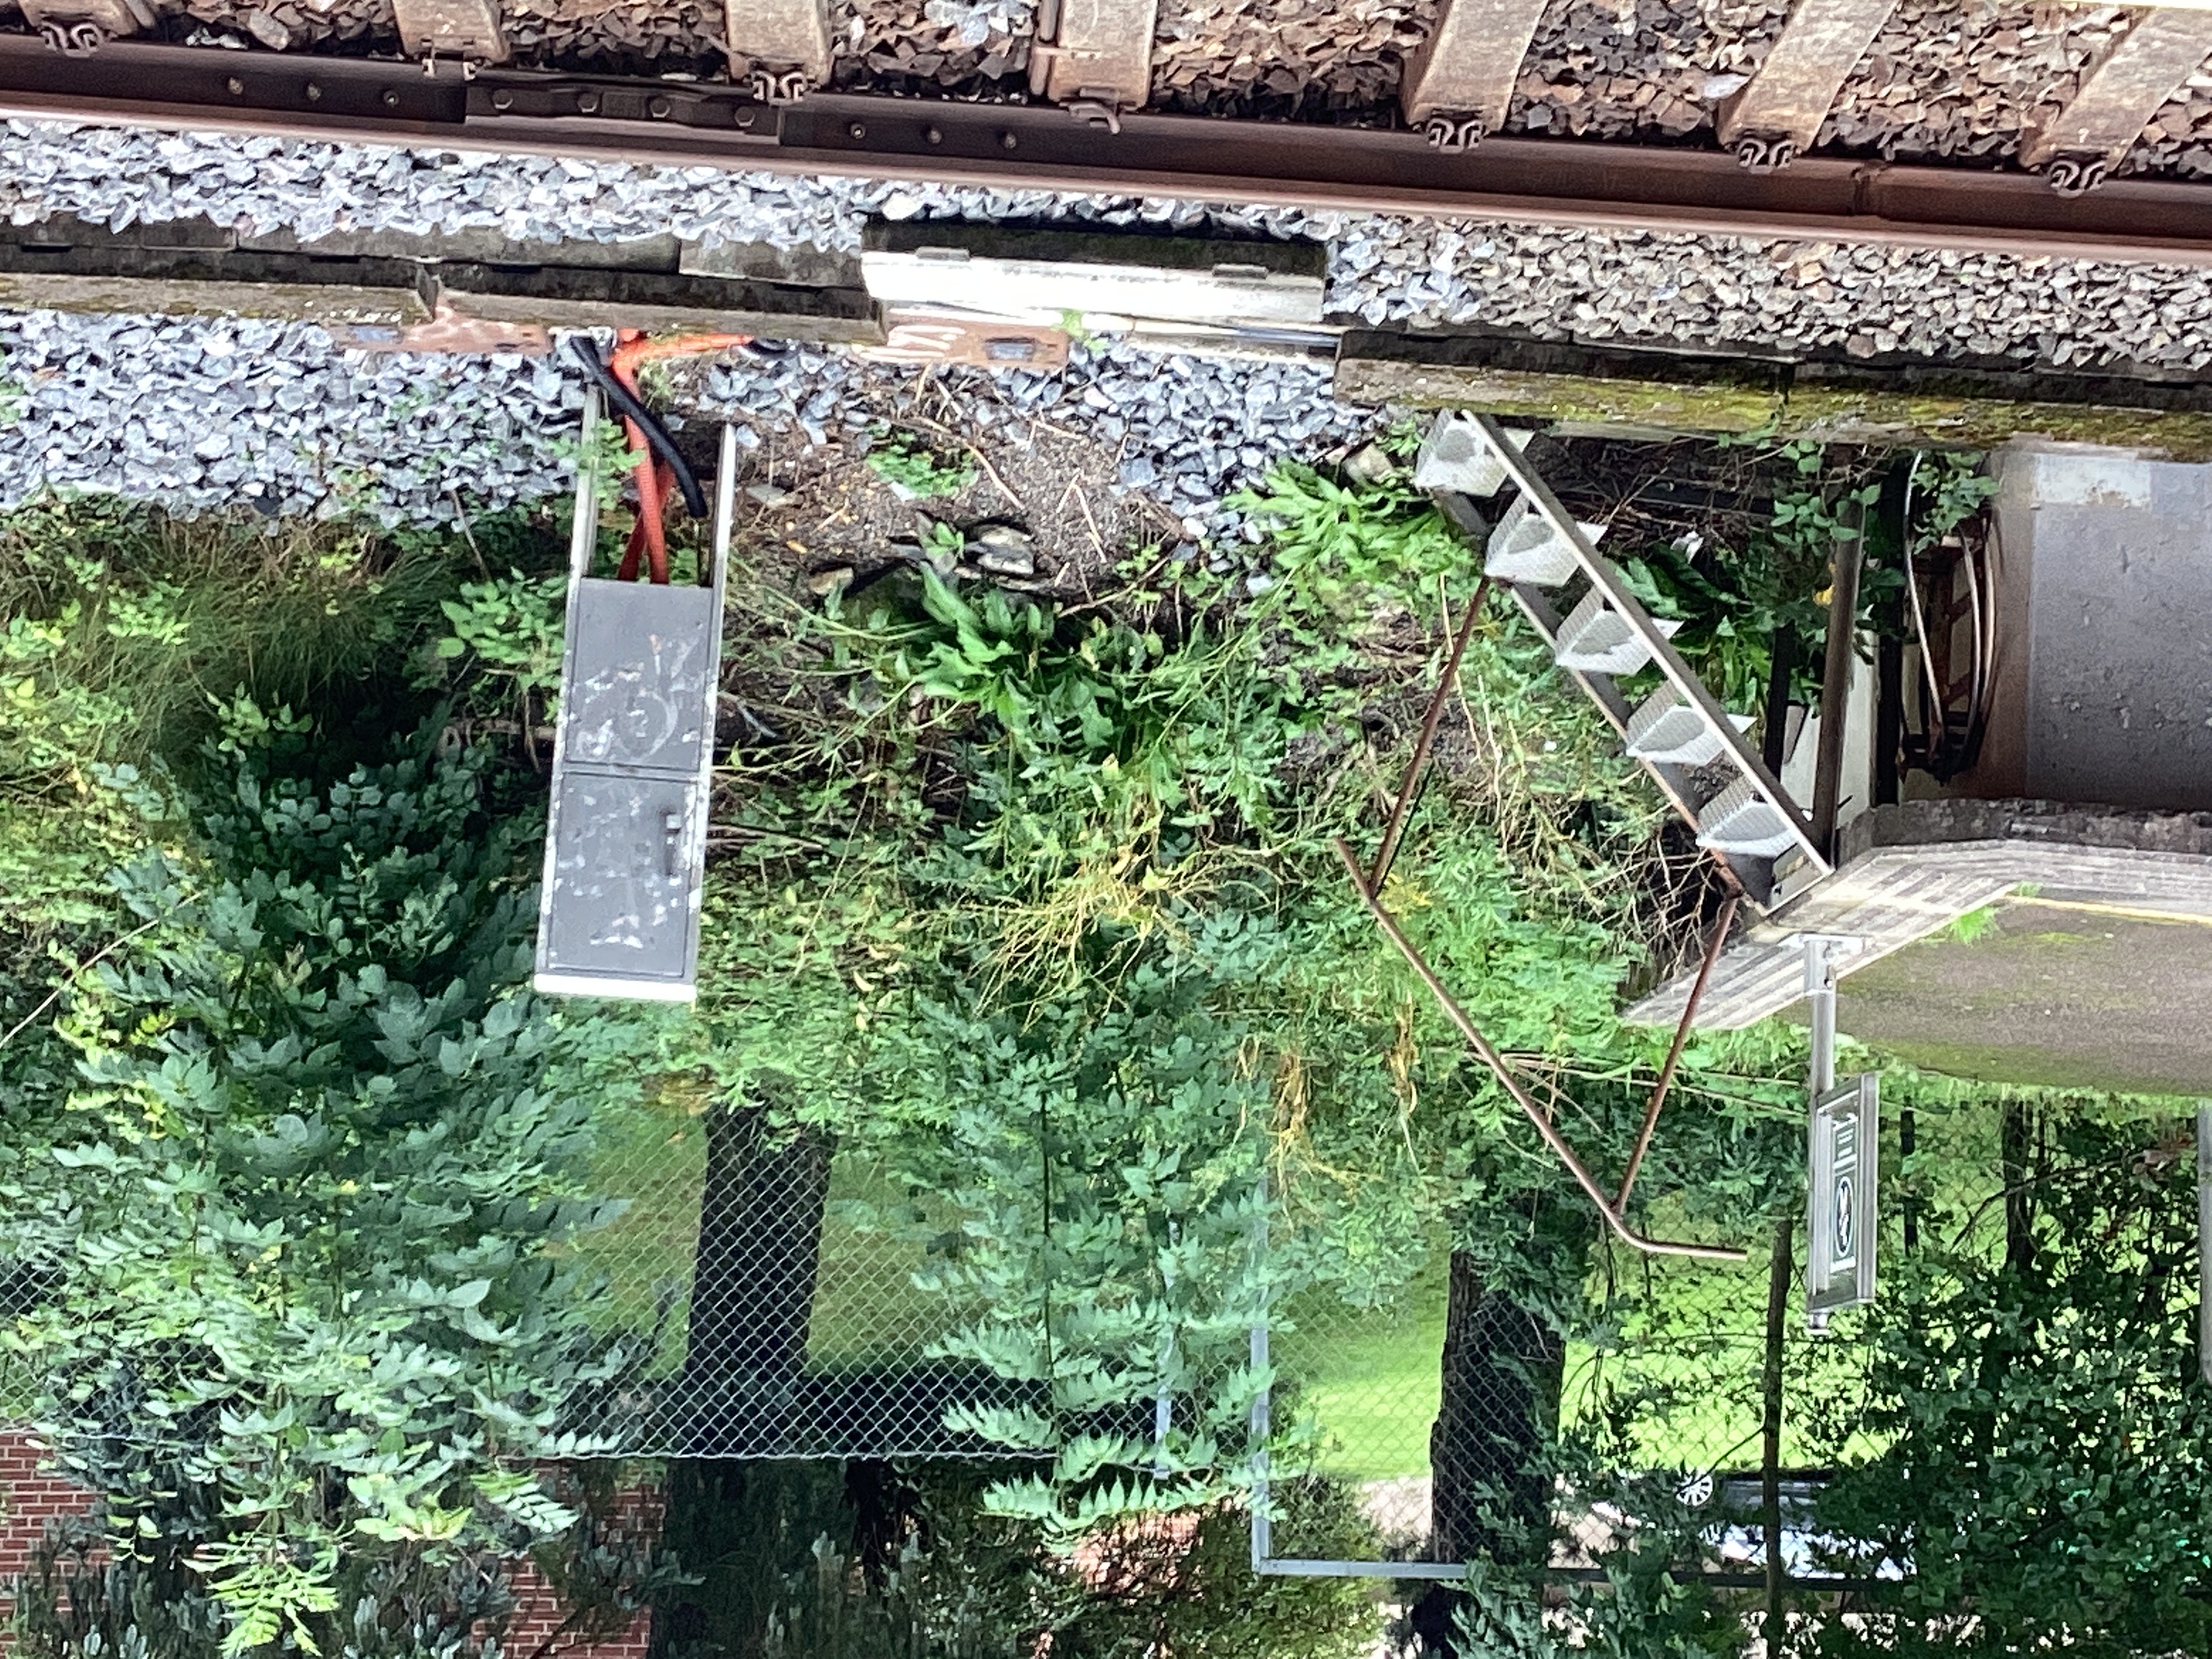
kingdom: Plantae
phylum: Tracheophyta
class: Magnoliopsida
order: Brassicales
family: Brassicaceae
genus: Bunias
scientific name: Bunias orientalis
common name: russekål
